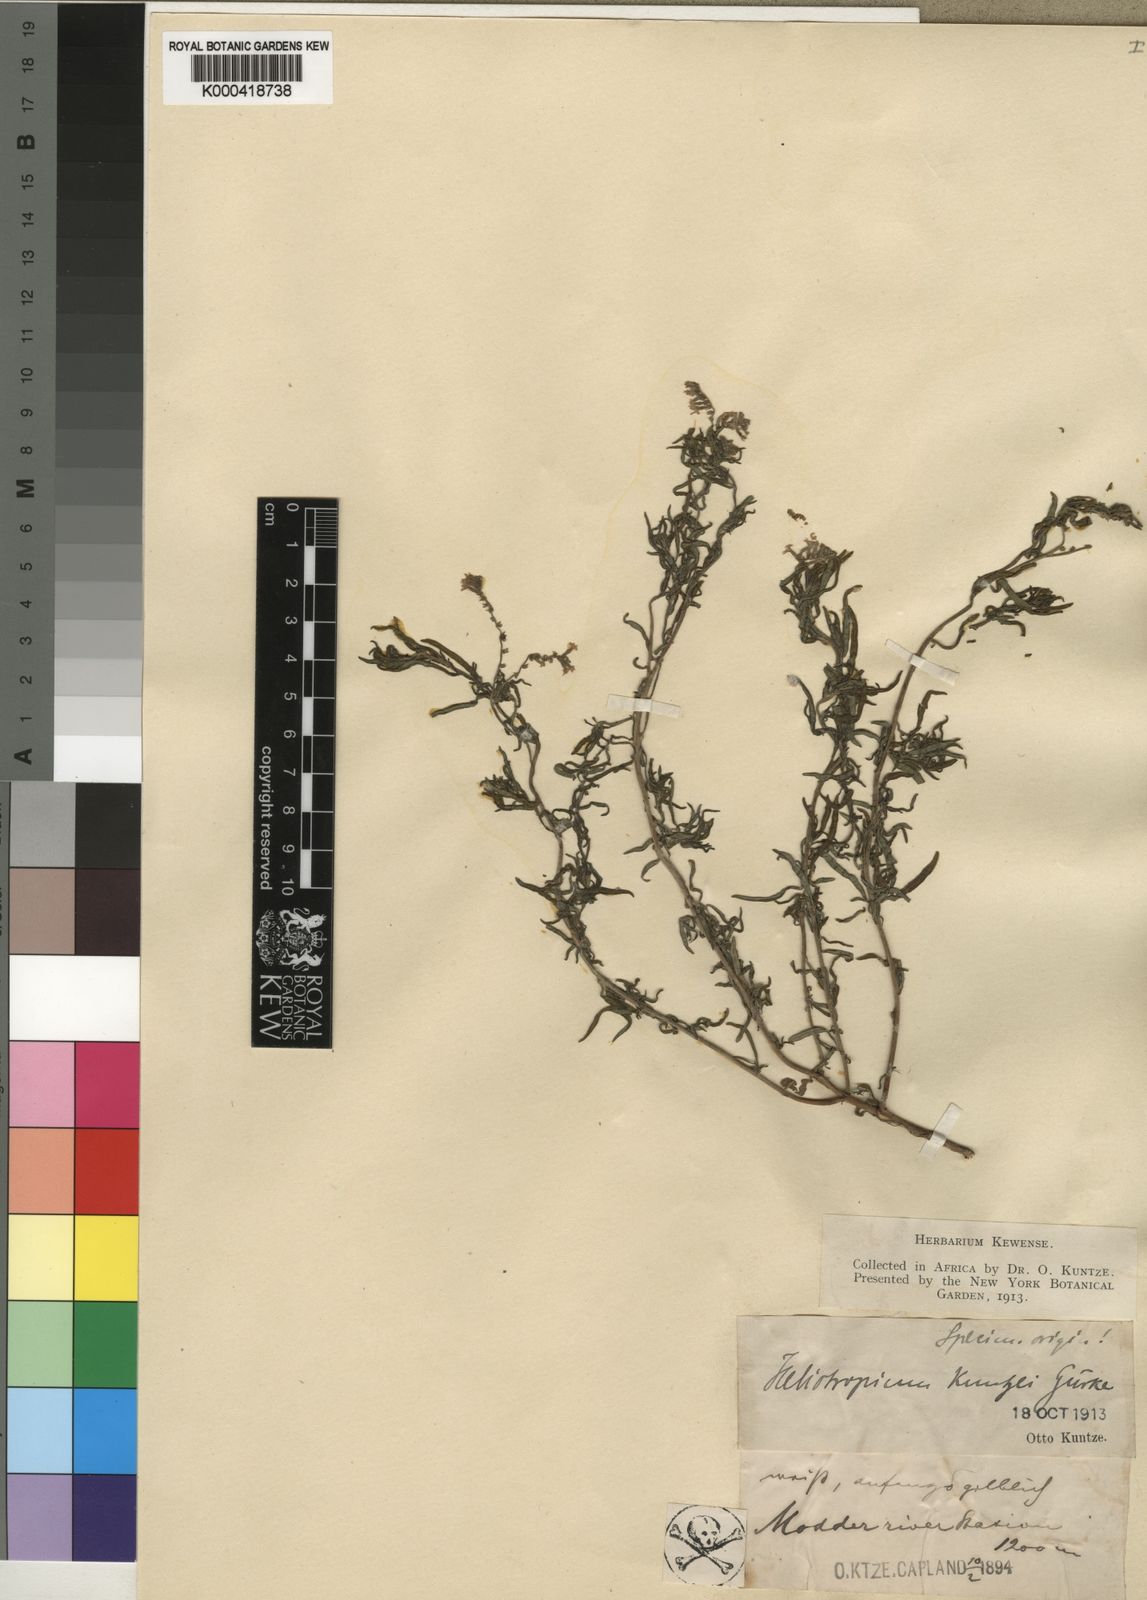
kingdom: Plantae
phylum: Tracheophyta
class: Magnoliopsida
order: Boraginales
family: Heliotropiaceae
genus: Heliotropium
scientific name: Heliotropium
